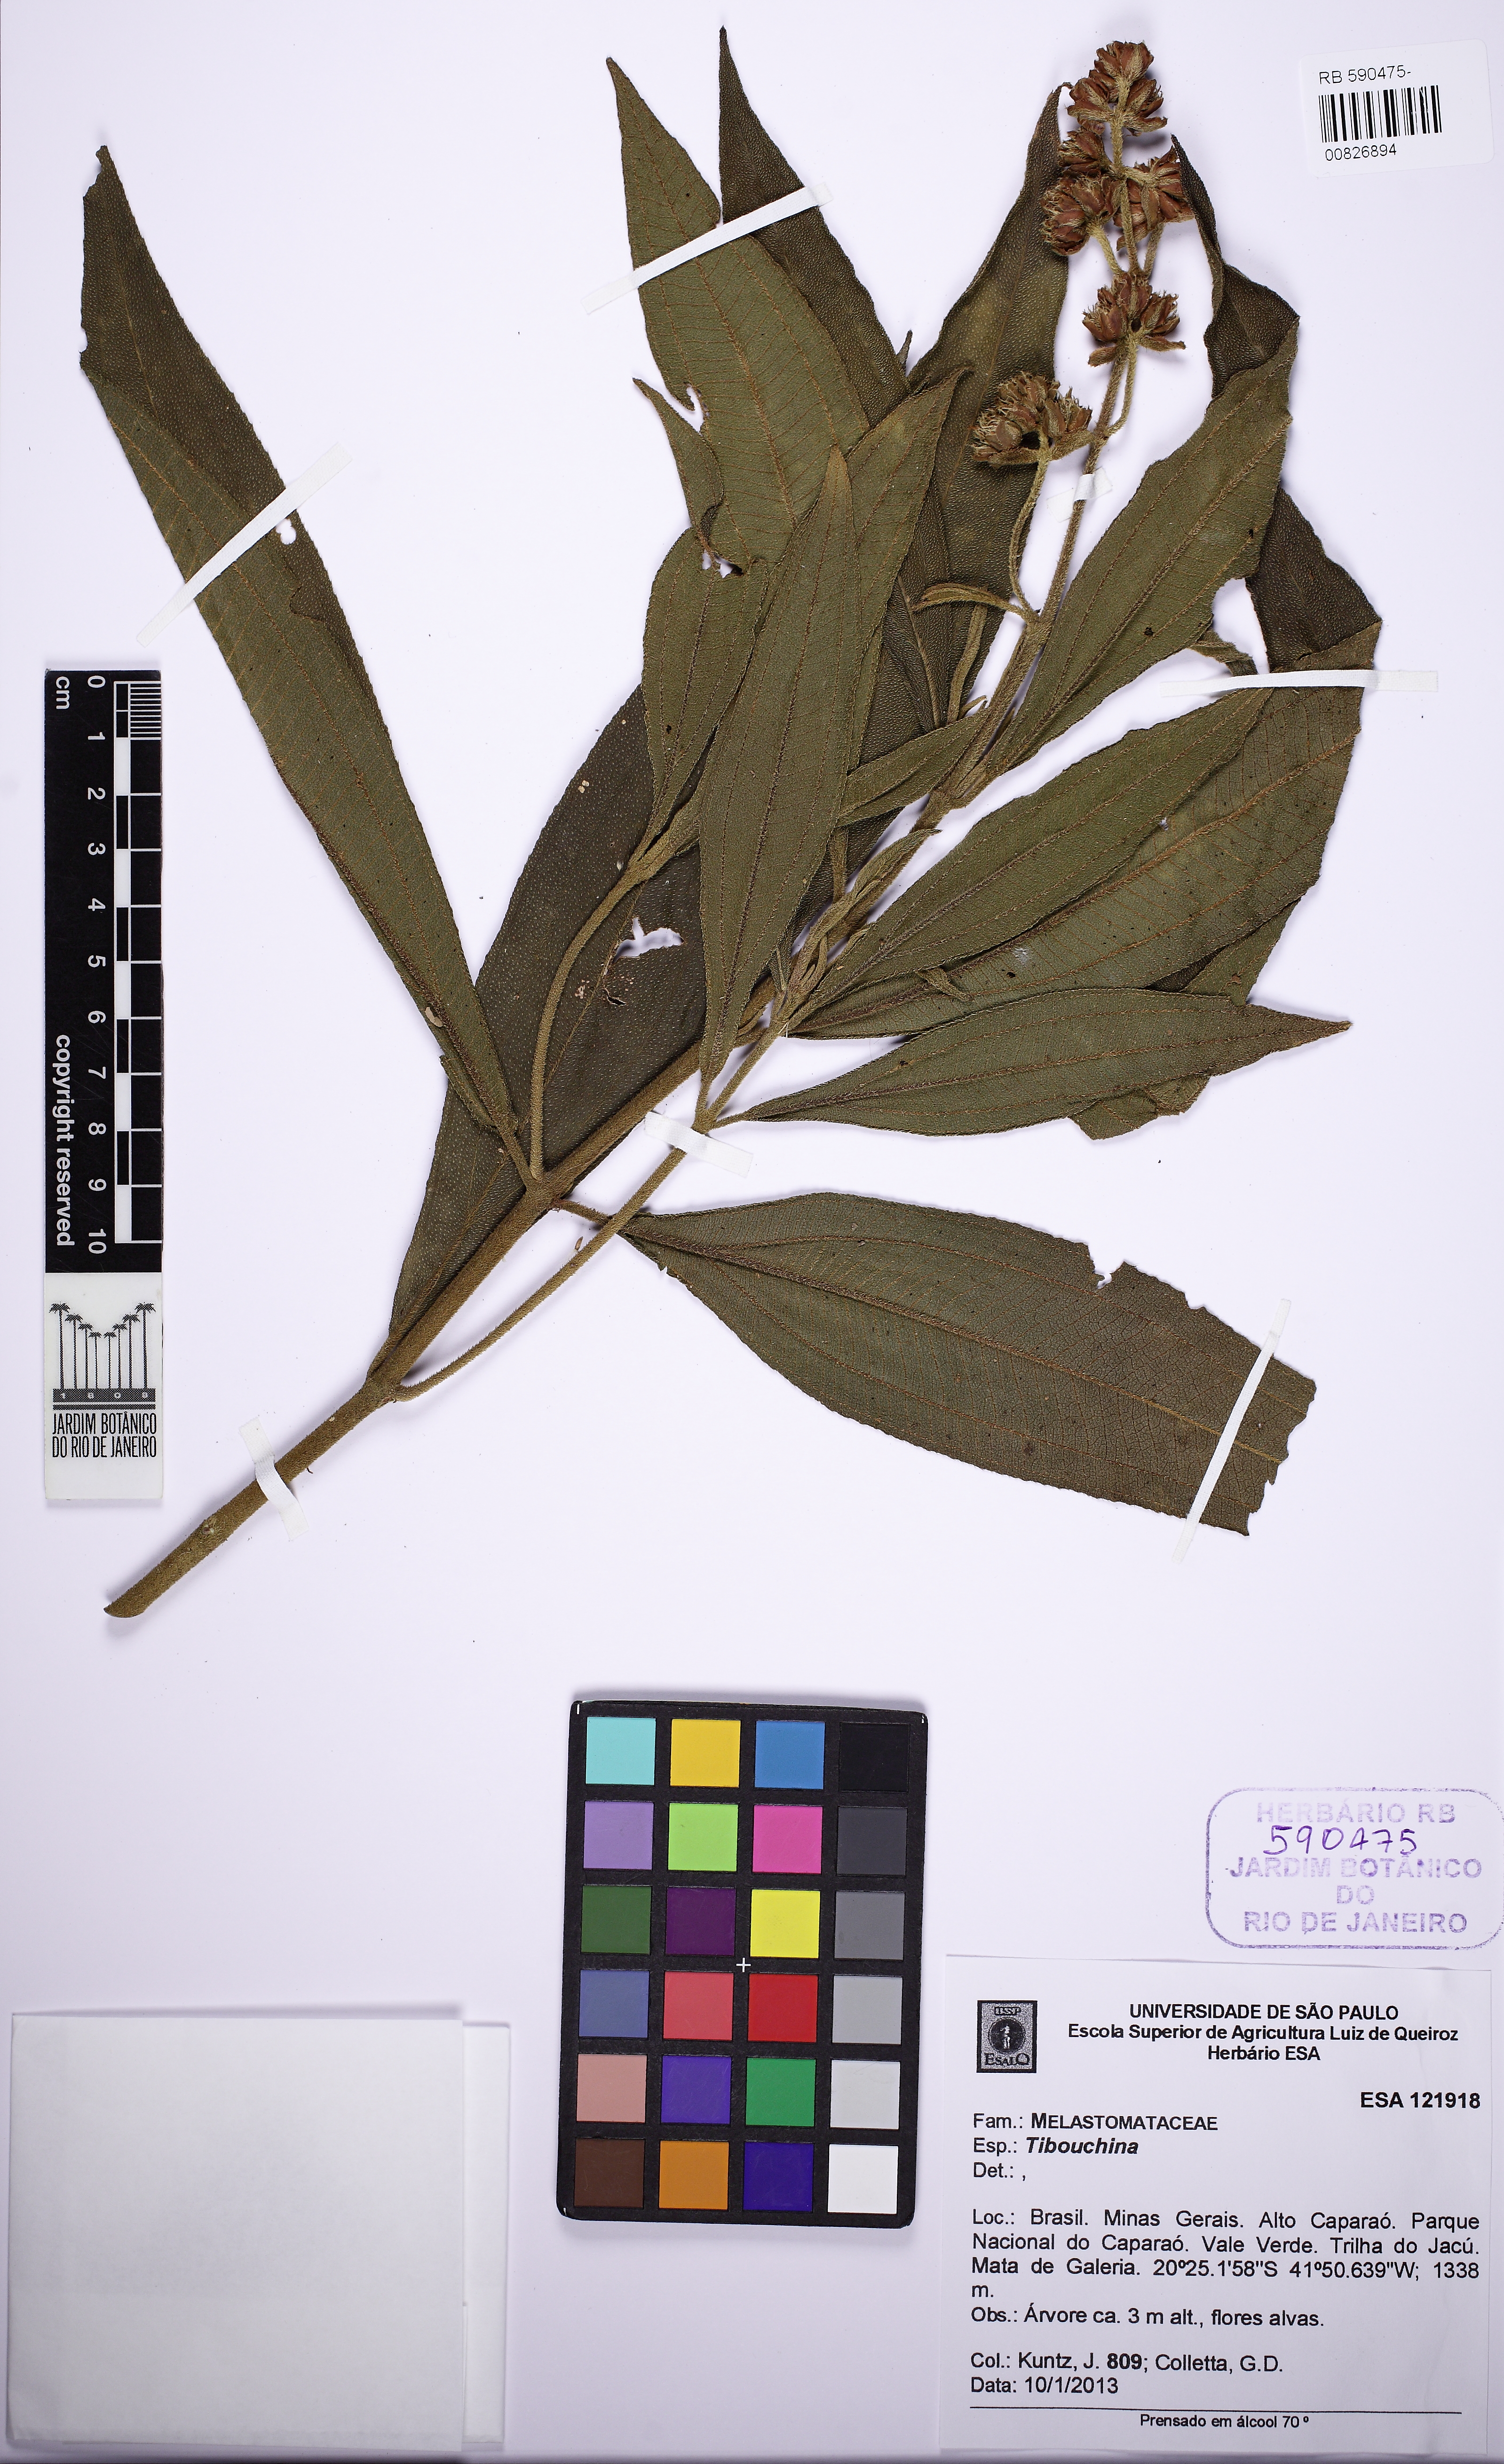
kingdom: Plantae
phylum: Tracheophyta
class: Magnoliopsida
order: Myrtales
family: Melastomataceae
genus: Tibouchina
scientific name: Tibouchina
